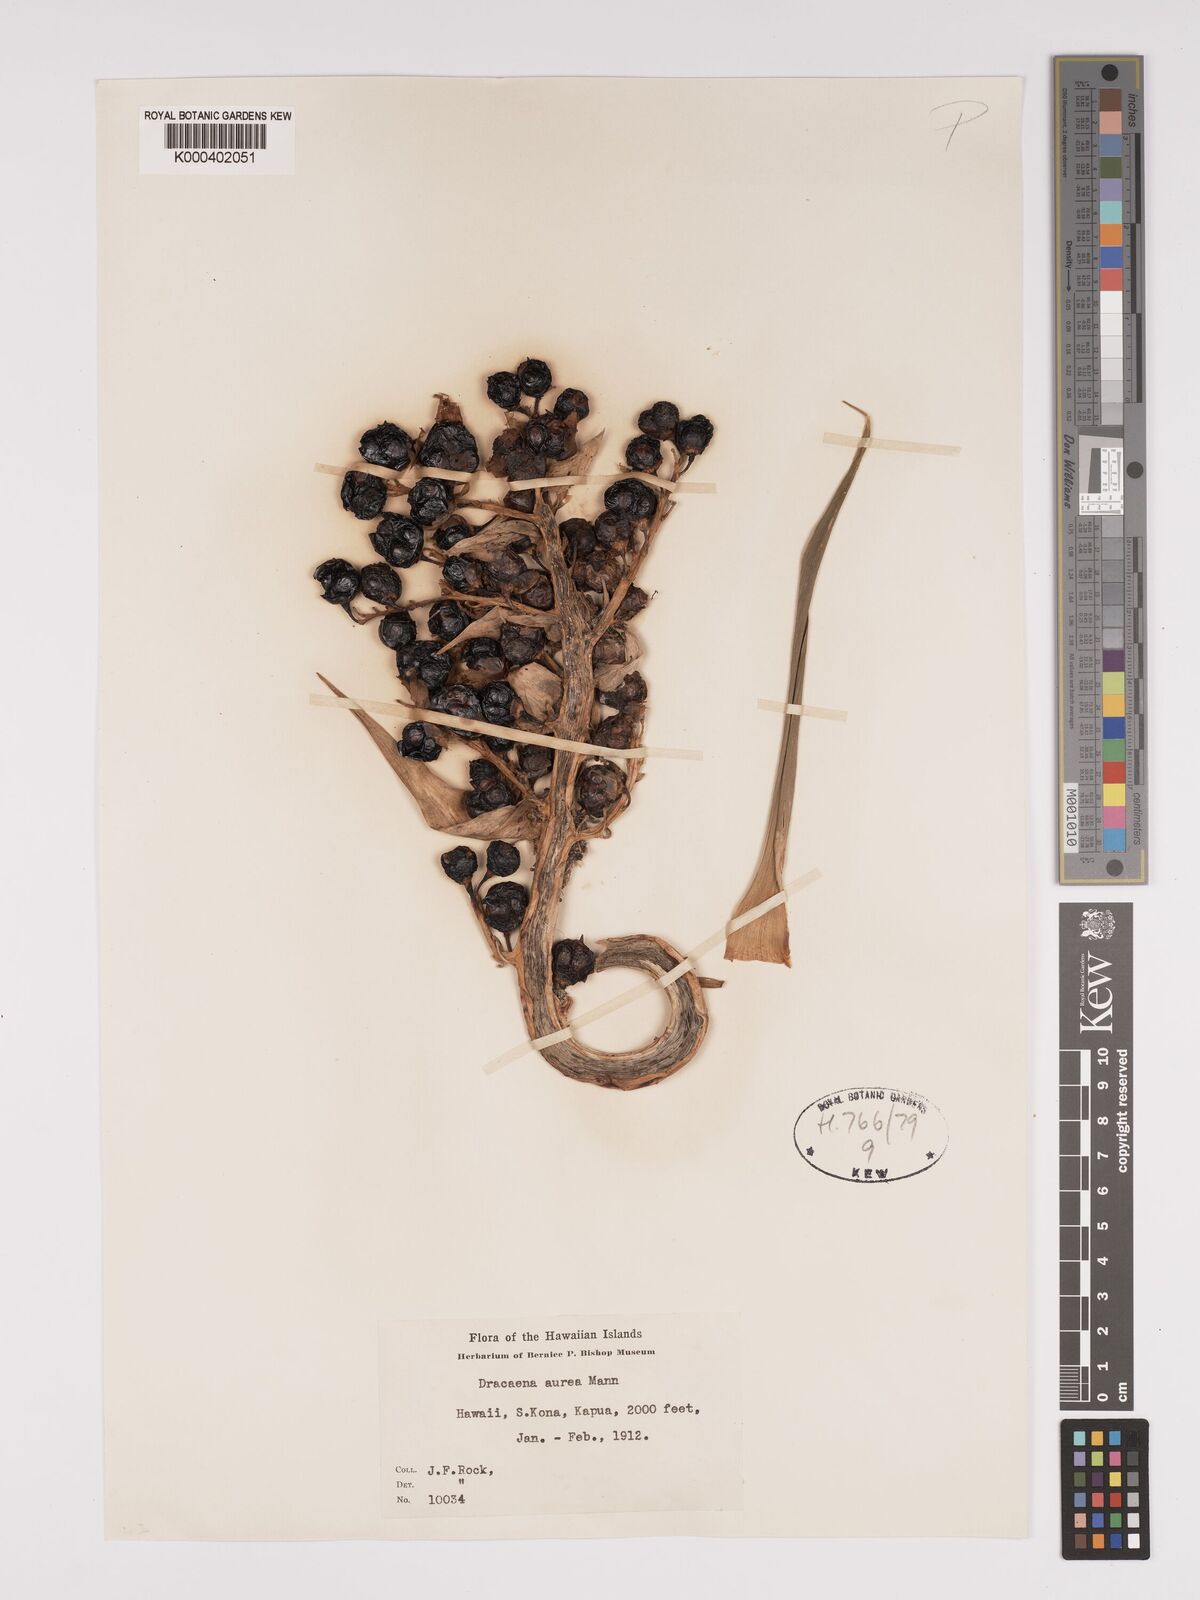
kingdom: Plantae
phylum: Tracheophyta
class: Liliopsida
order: Asparagales
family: Asparagaceae
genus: Dracaena
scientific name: Dracaena aurea
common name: Golden dracaena
